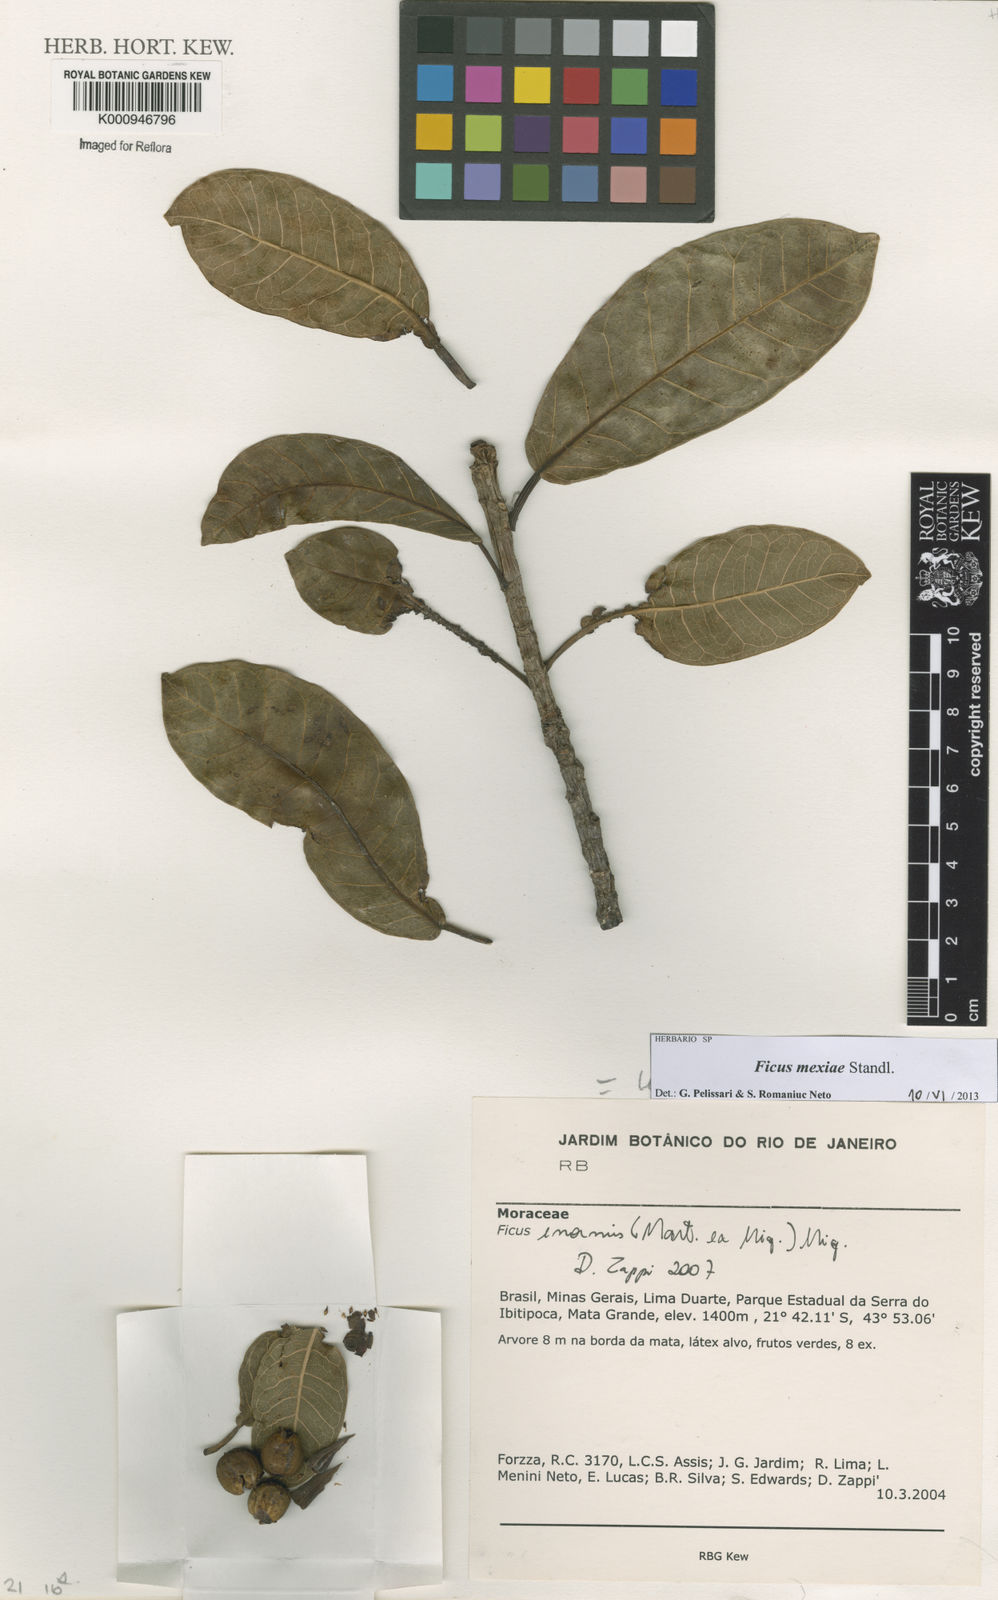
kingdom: Plantae
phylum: Tracheophyta
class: Magnoliopsida
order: Rosales
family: Moraceae
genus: Ficus
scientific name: Ficus mexiae
